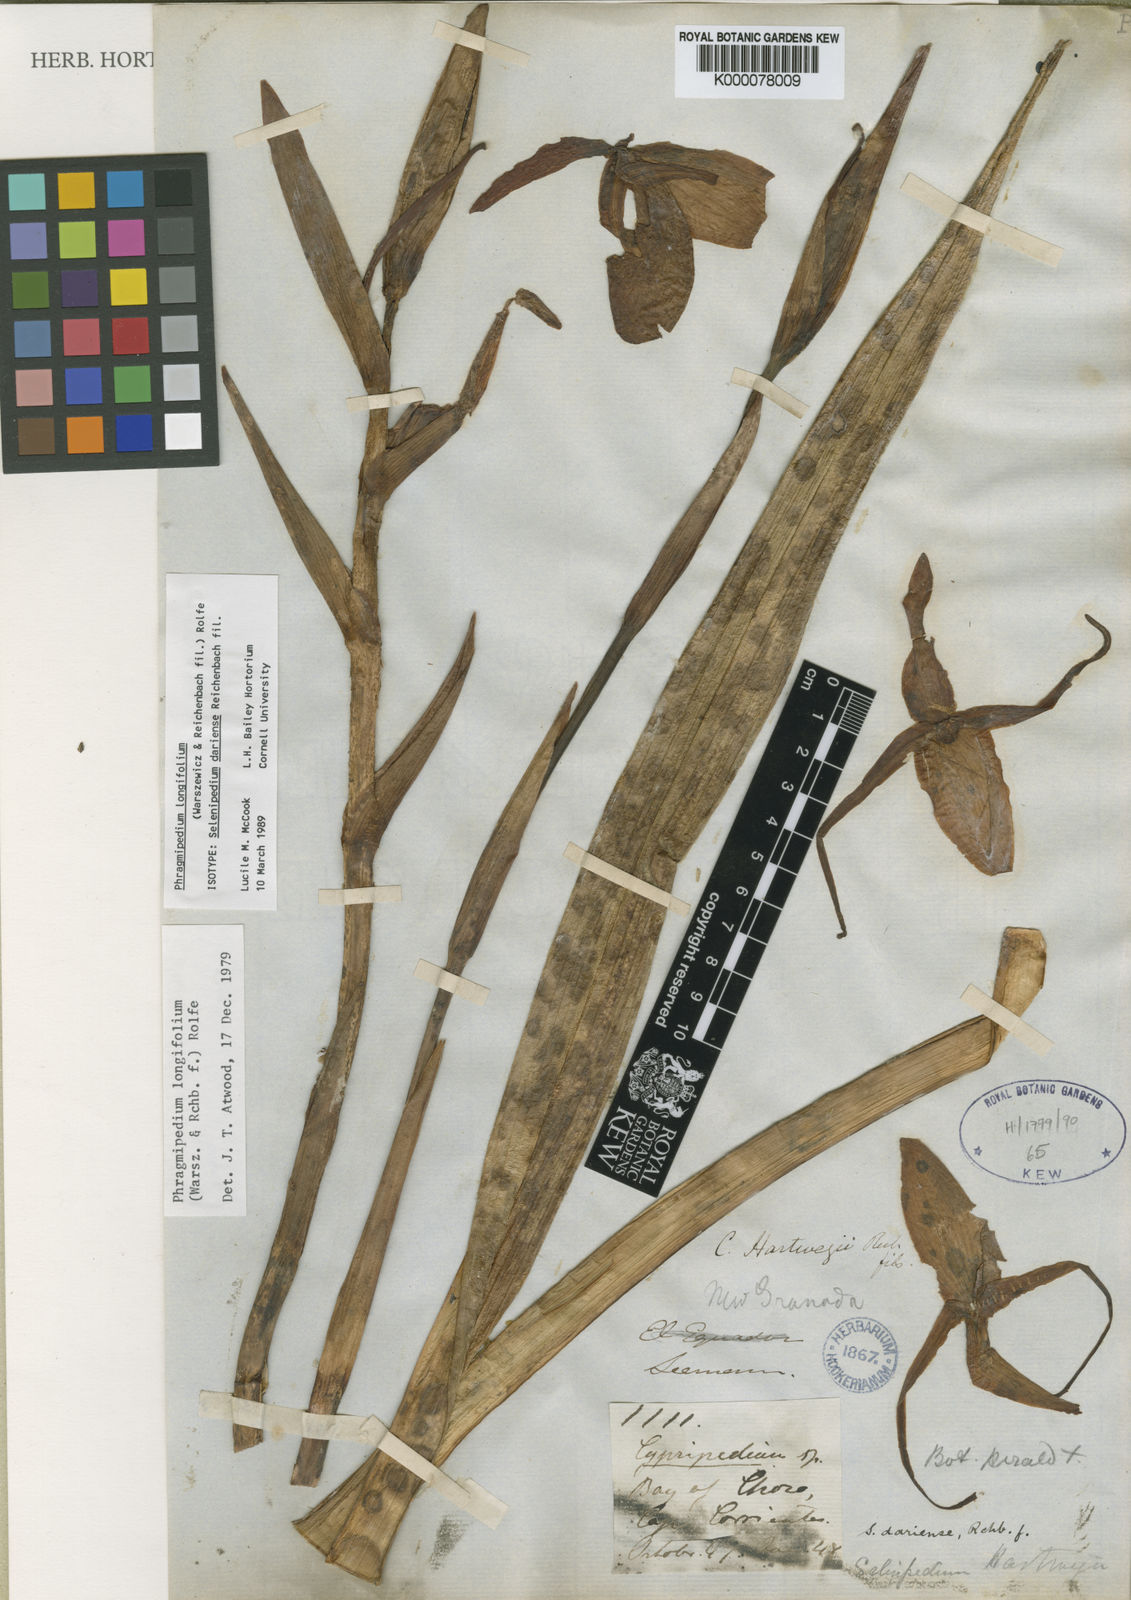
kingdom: Plantae
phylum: Tracheophyta
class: Liliopsida
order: Asparagales
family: Orchidaceae
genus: Phragmipedium
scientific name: Phragmipedium longifolium
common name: Long-leaf phragmipedium
